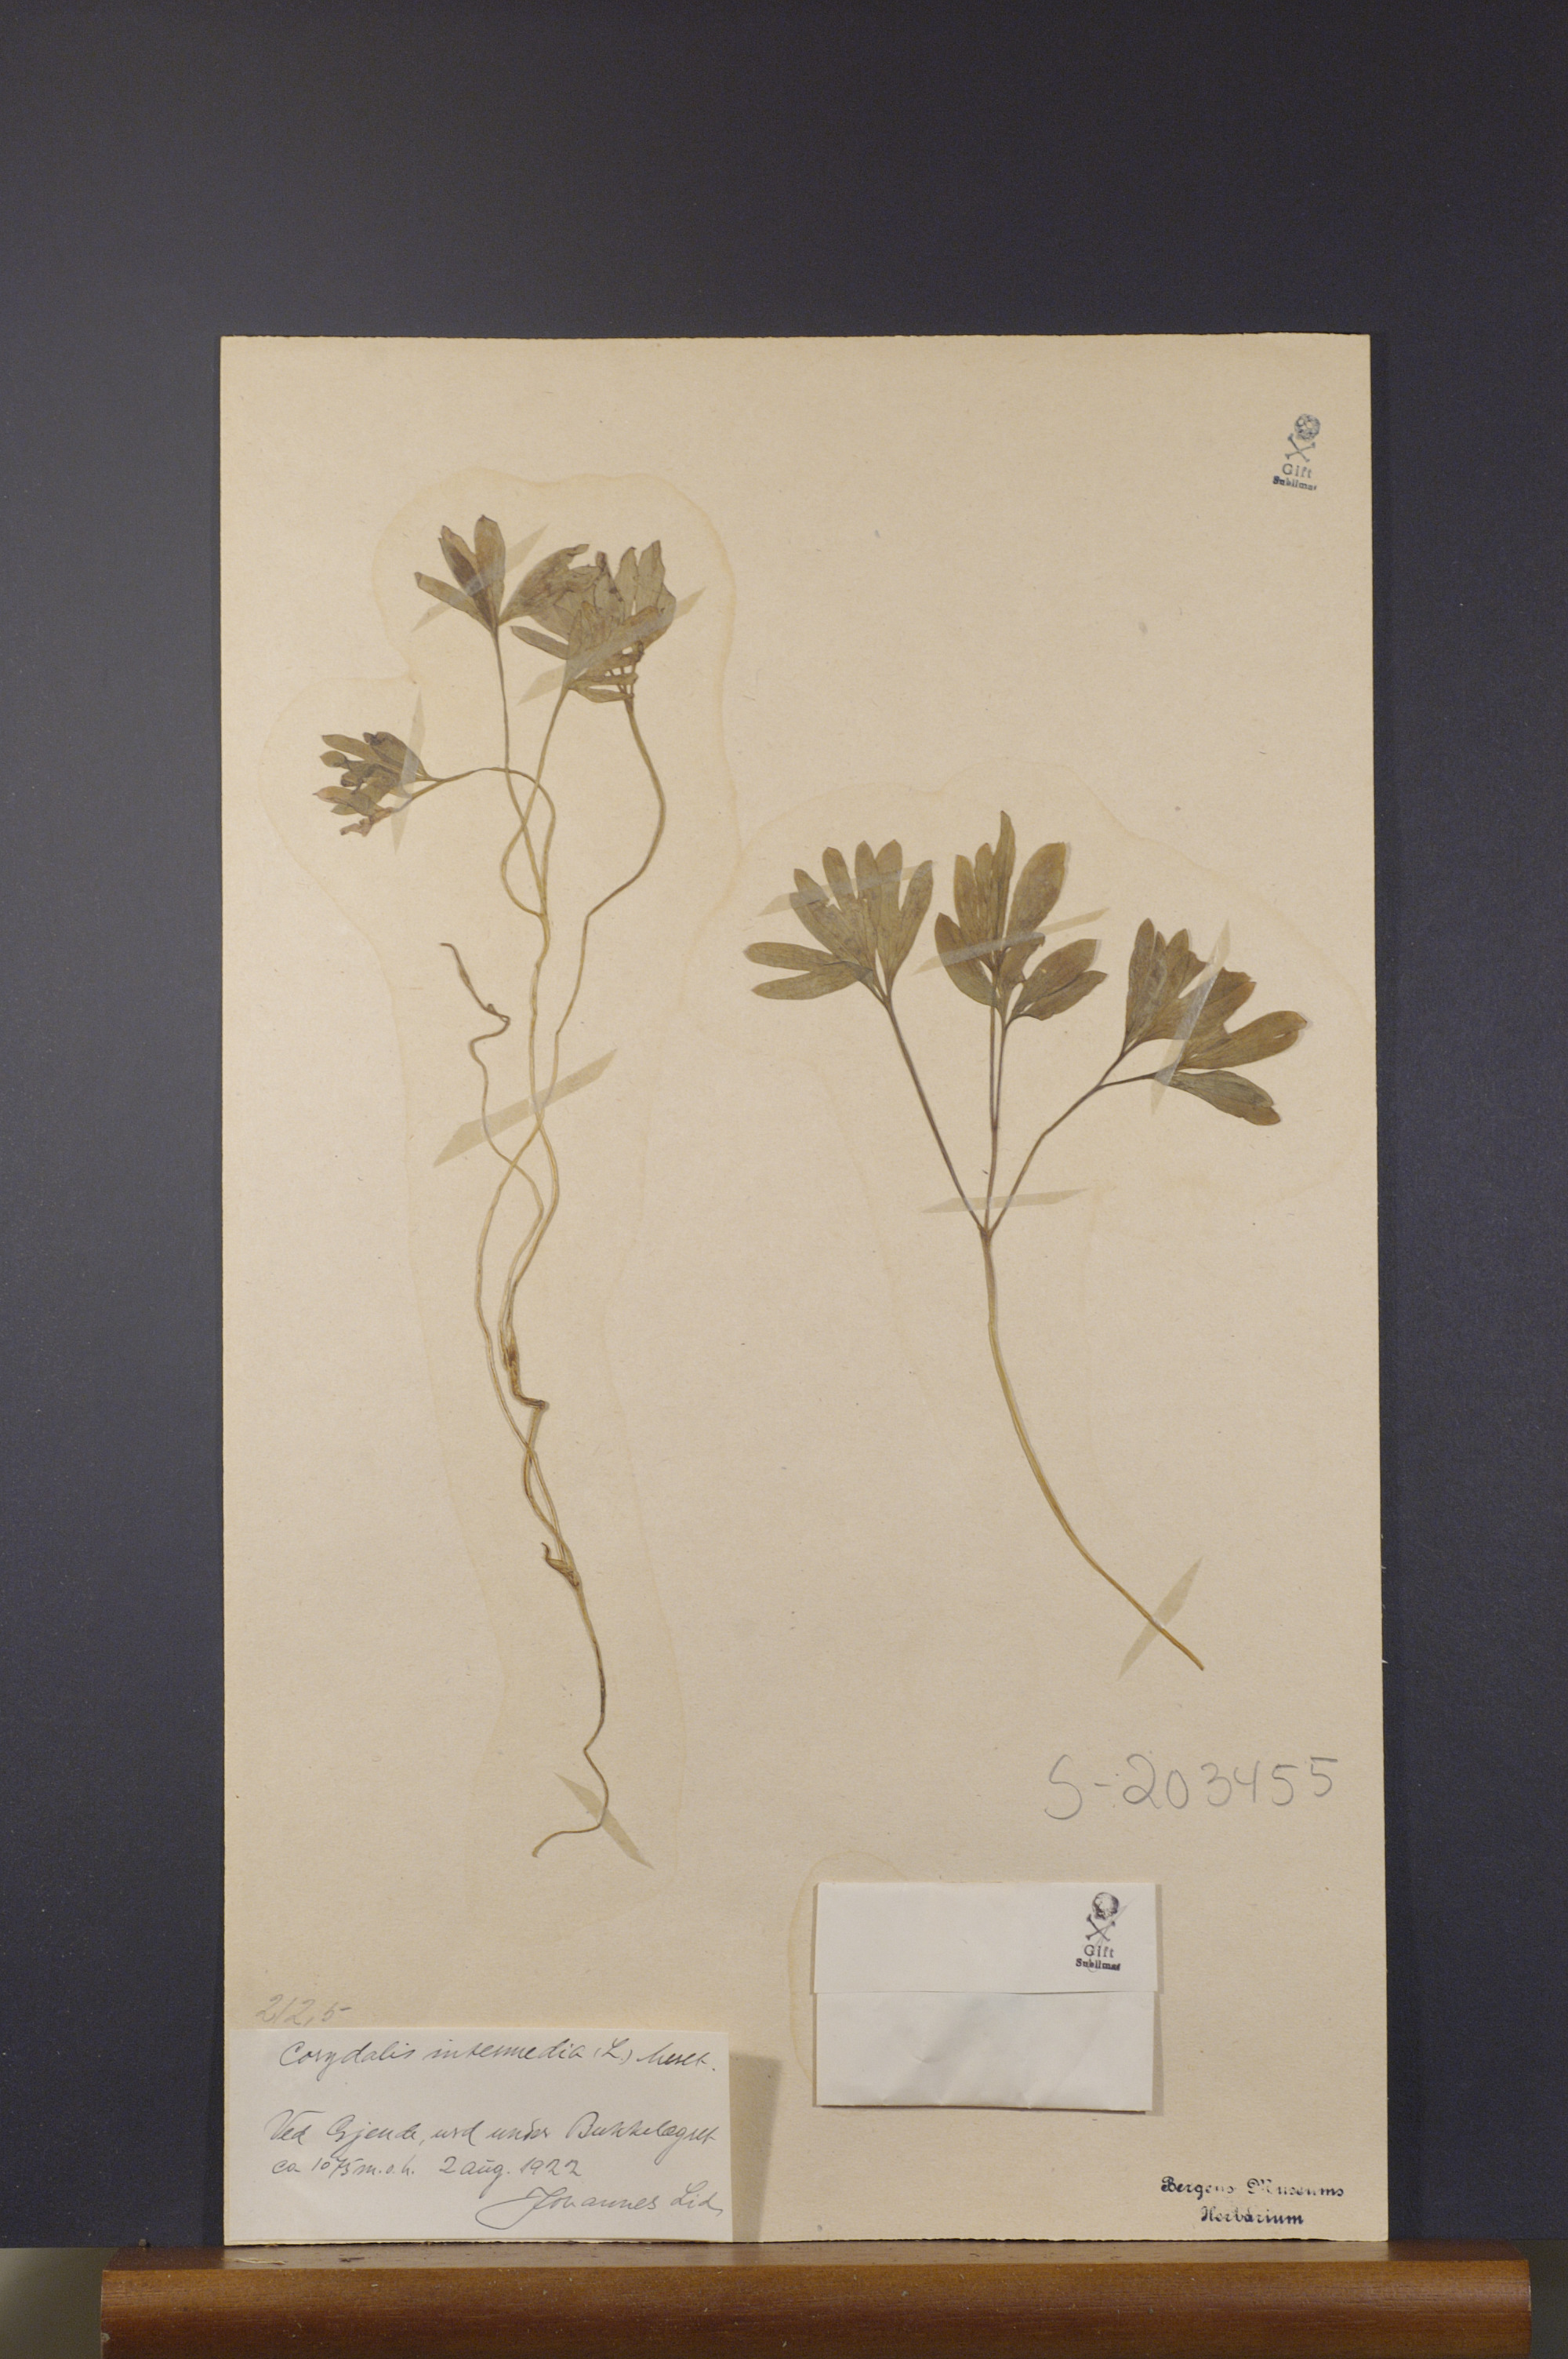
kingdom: Plantae
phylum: Tracheophyta
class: Magnoliopsida
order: Ranunculales
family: Papaveraceae
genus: Corydalis
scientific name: Corydalis intermedia
